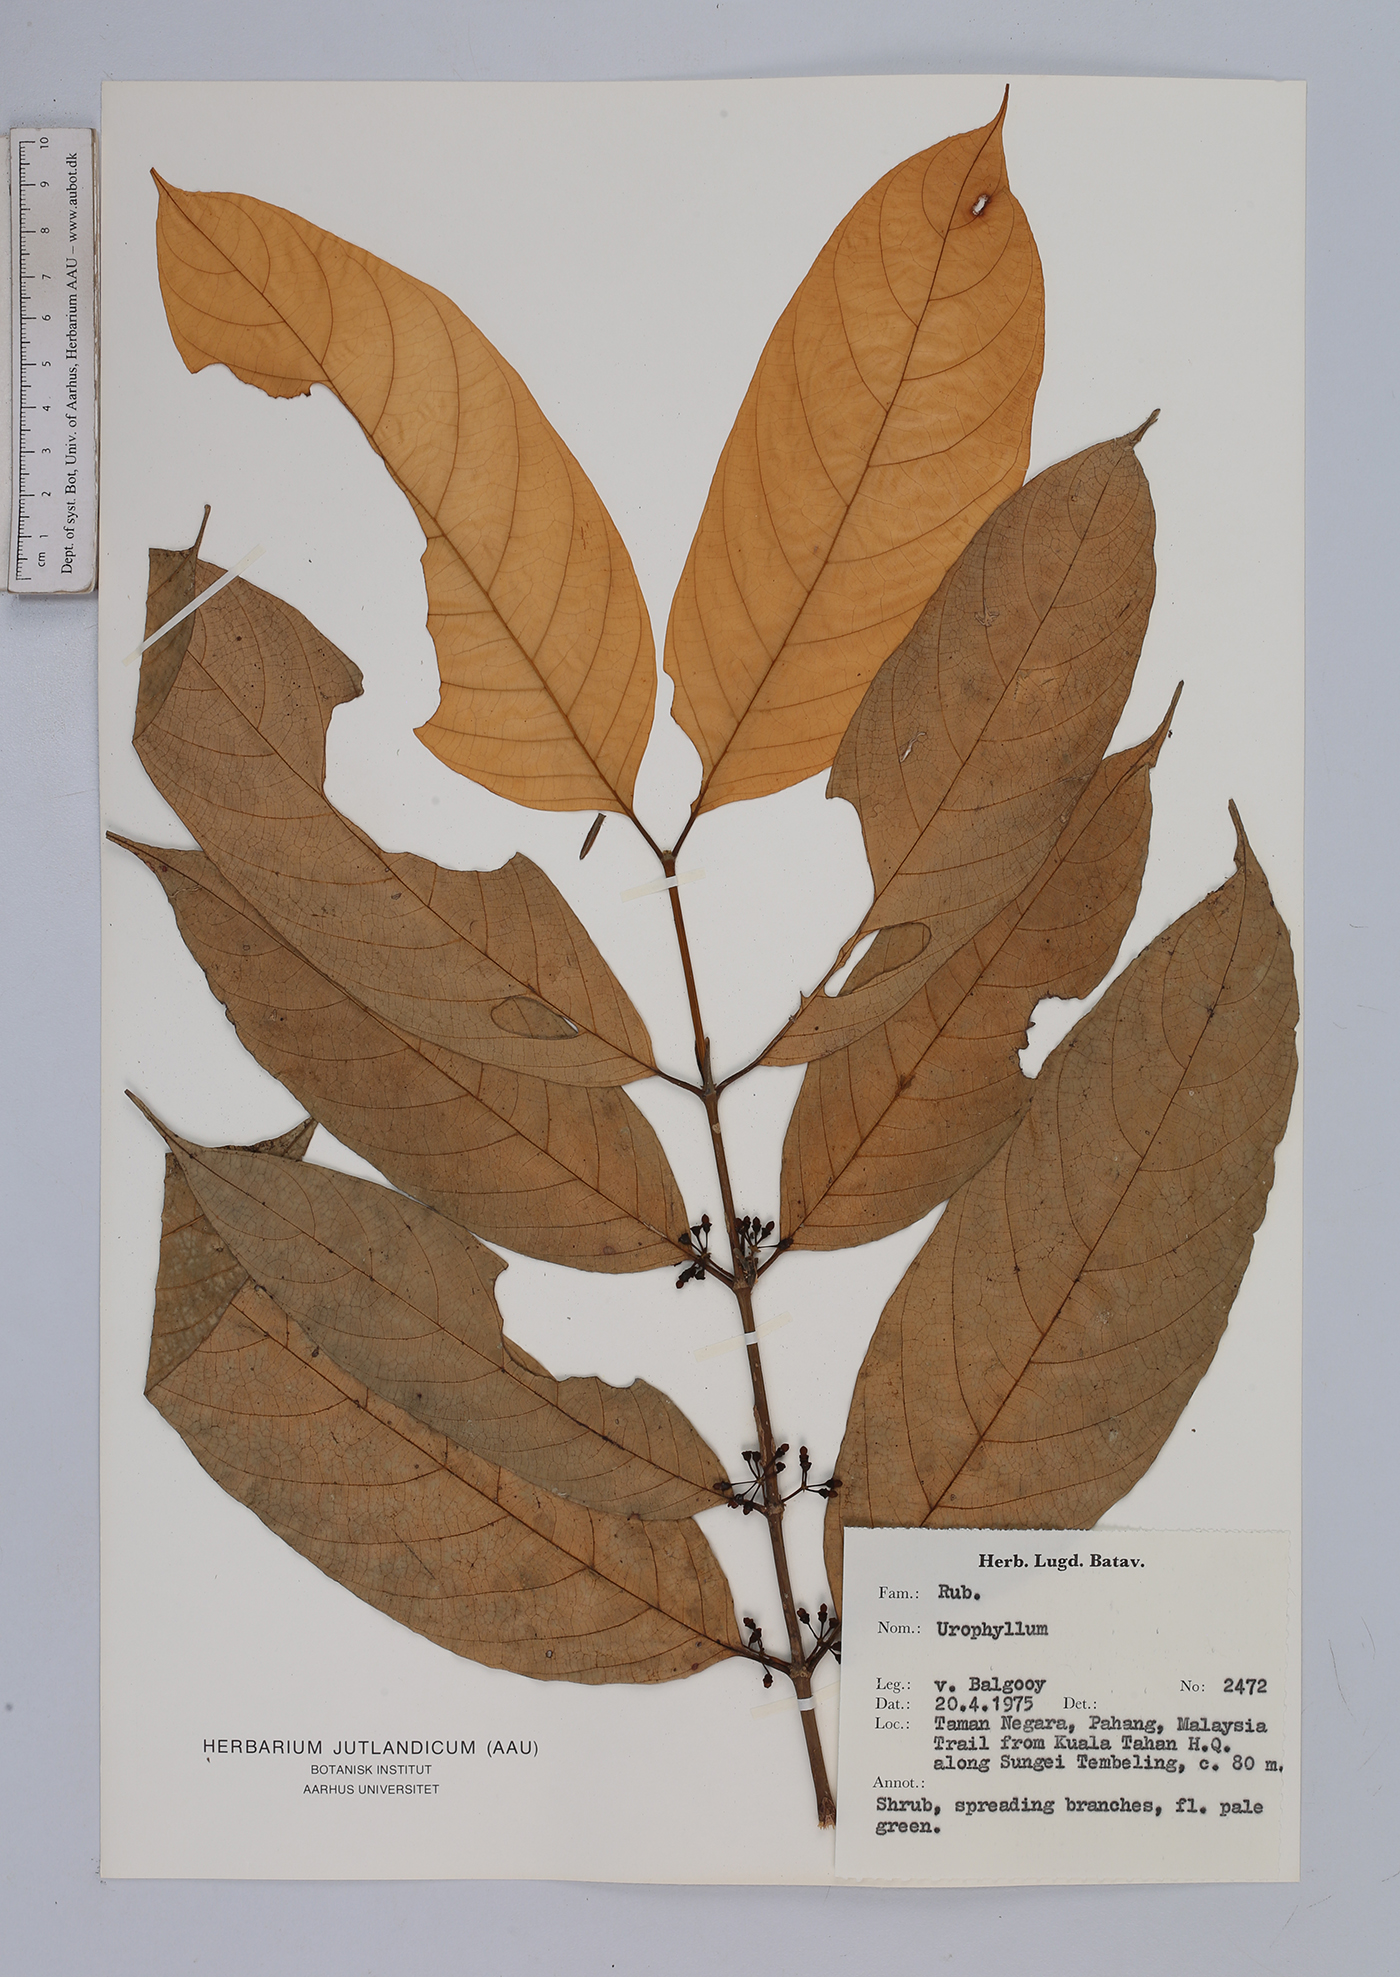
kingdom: Plantae
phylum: Tracheophyta
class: Magnoliopsida
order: Gentianales
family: Rubiaceae
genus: Urophyllum
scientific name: Urophyllum
